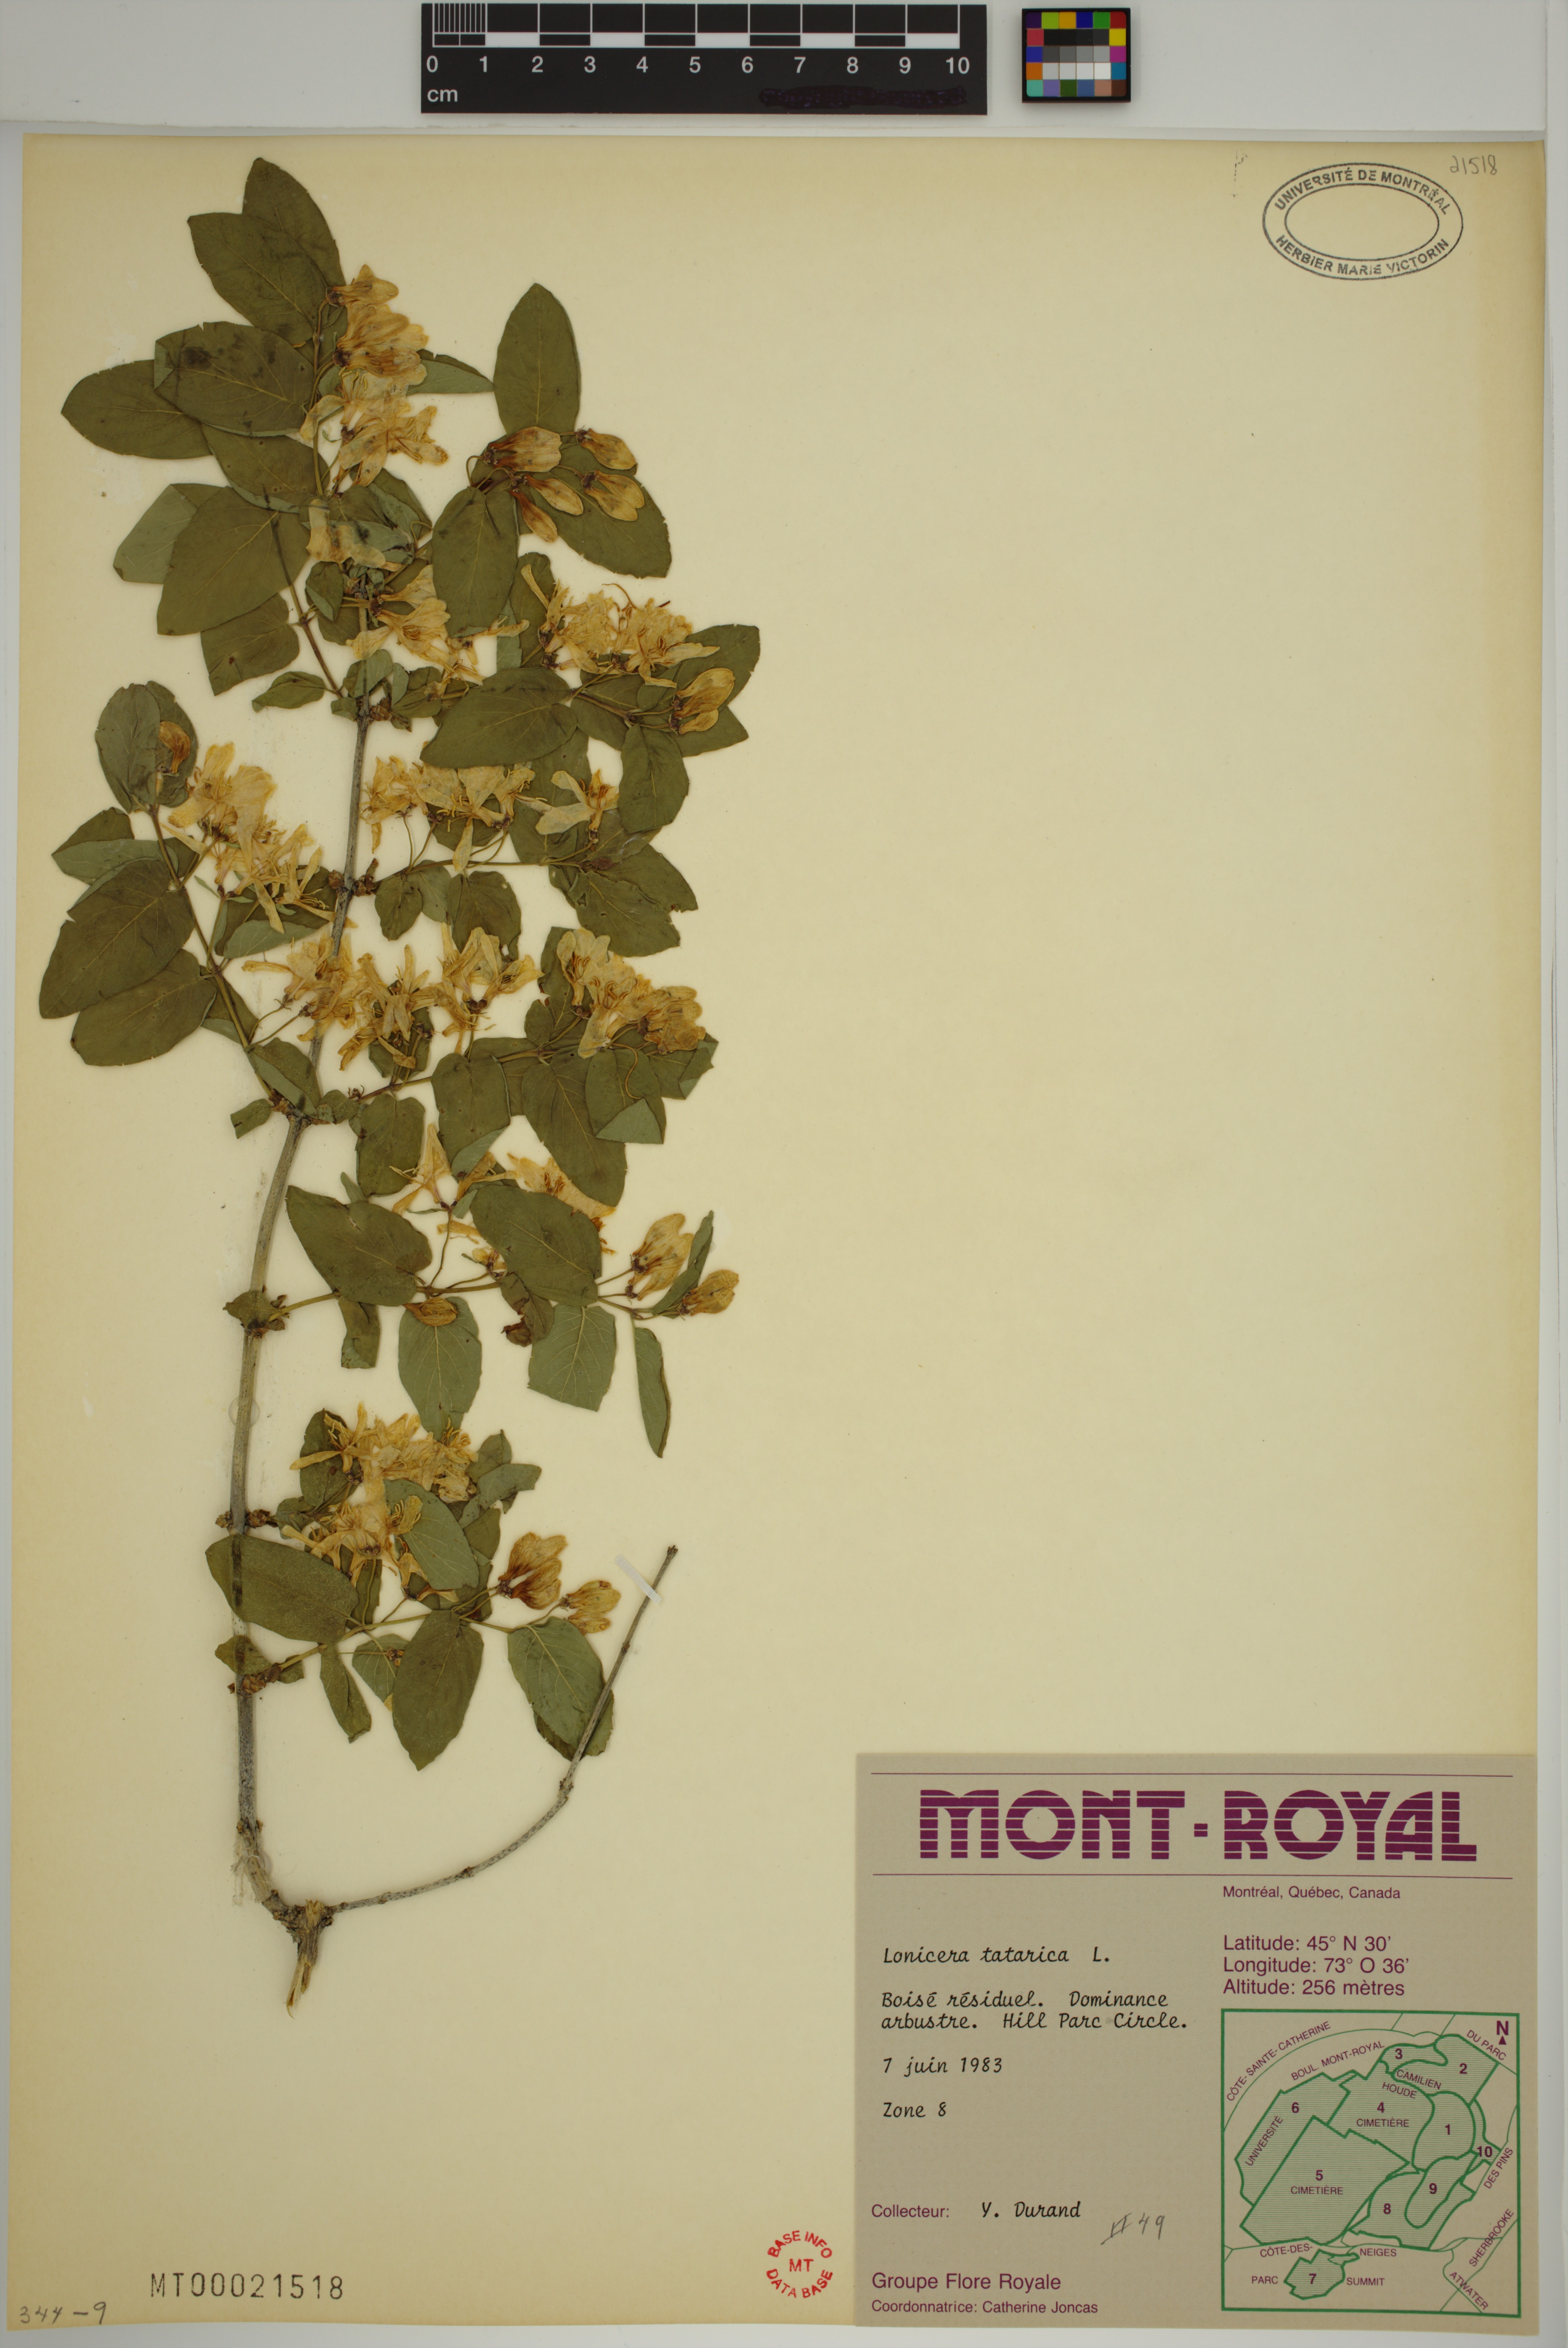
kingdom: Plantae
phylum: Tracheophyta
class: Magnoliopsida
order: Dipsacales
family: Caprifoliaceae
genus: Lonicera
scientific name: Lonicera tatarica
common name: Tatarian honeysuckle
